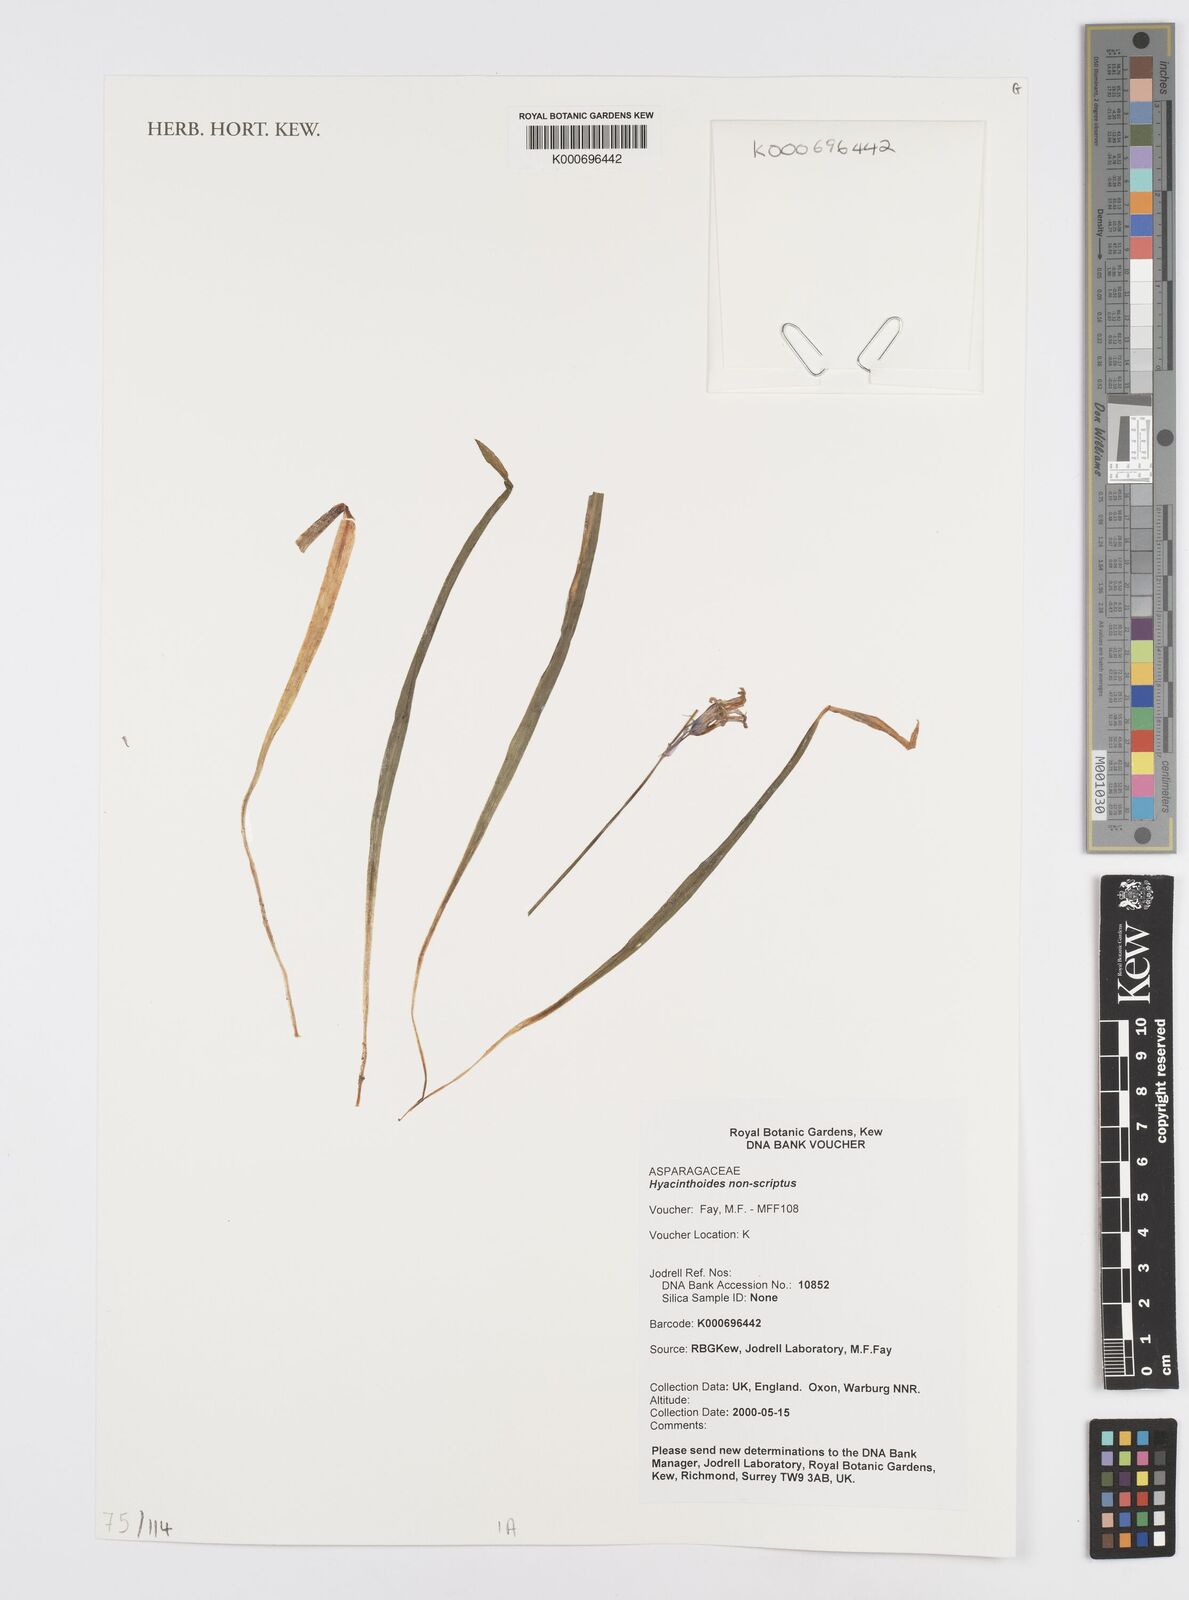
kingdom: Plantae
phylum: Tracheophyta
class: Liliopsida
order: Asparagales
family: Asparagaceae
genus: Hyacinthoides
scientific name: Hyacinthoides non-scripta
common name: Bluebell
